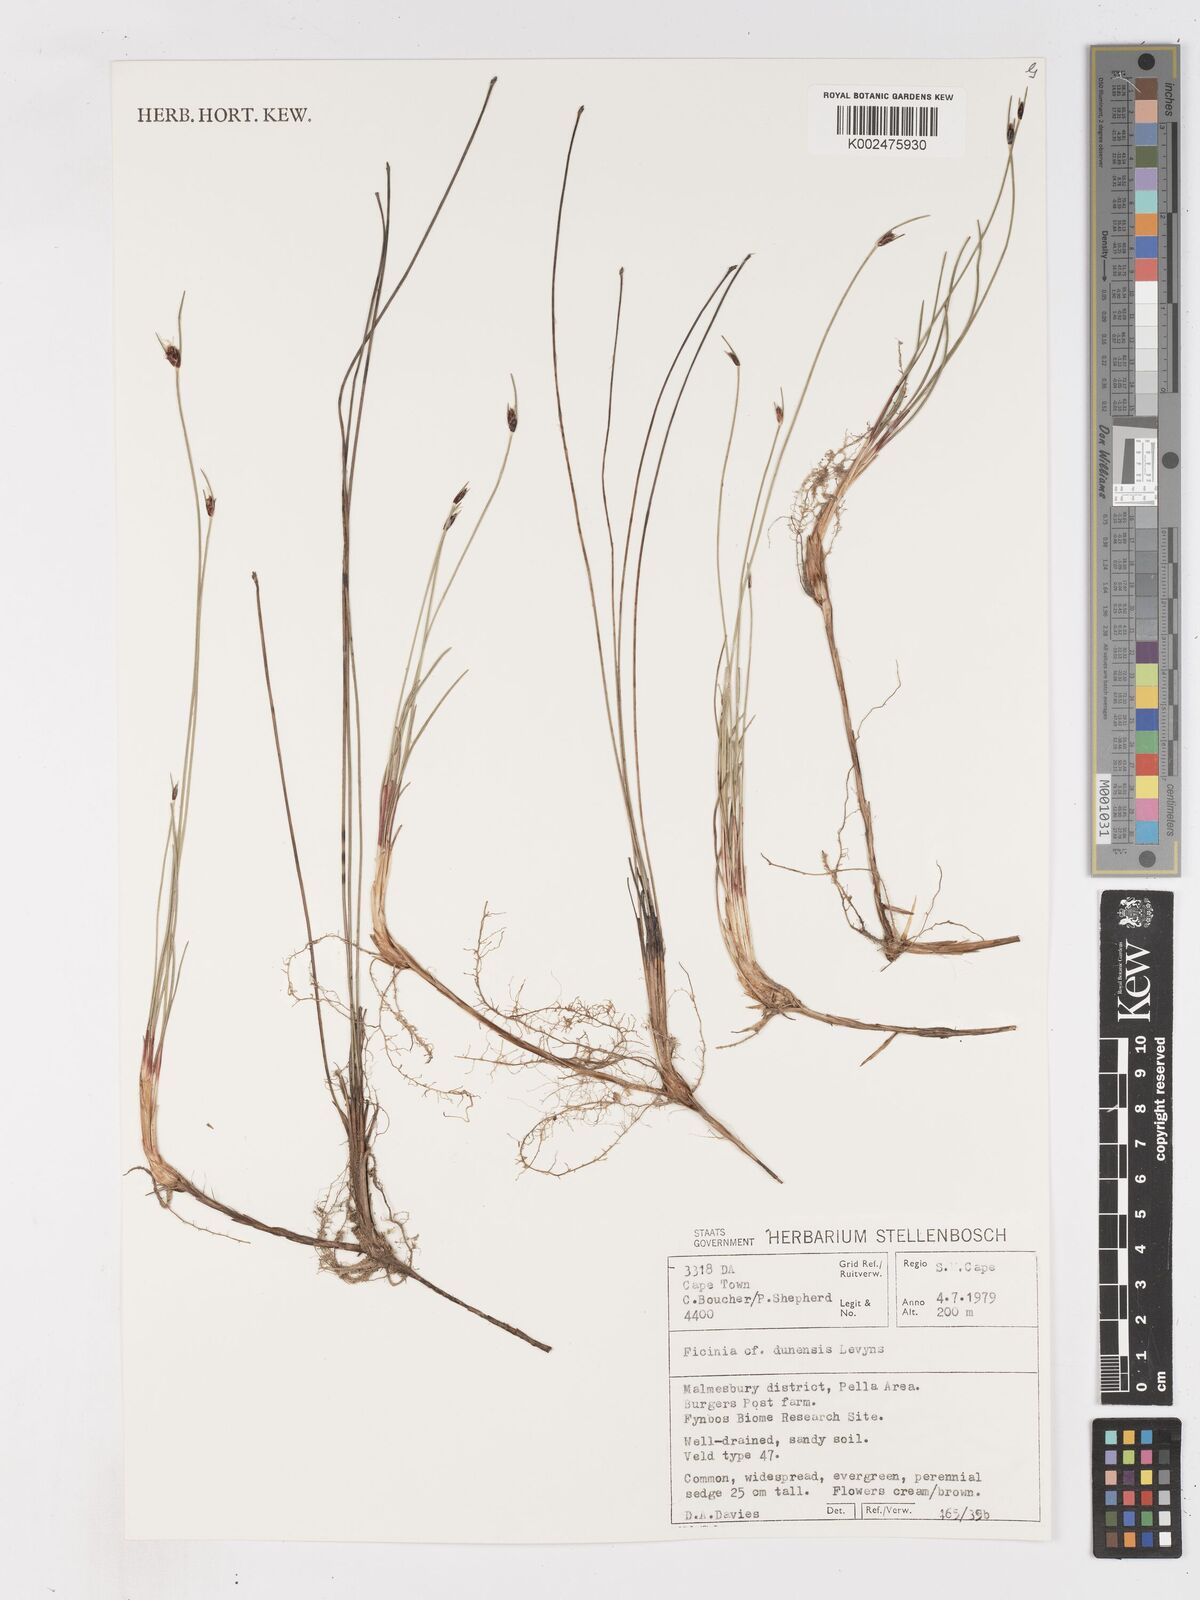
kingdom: Plantae
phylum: Tracheophyta
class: Liliopsida
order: Poales
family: Cyperaceae
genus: Ficinia
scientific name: Ficinia dunensis
